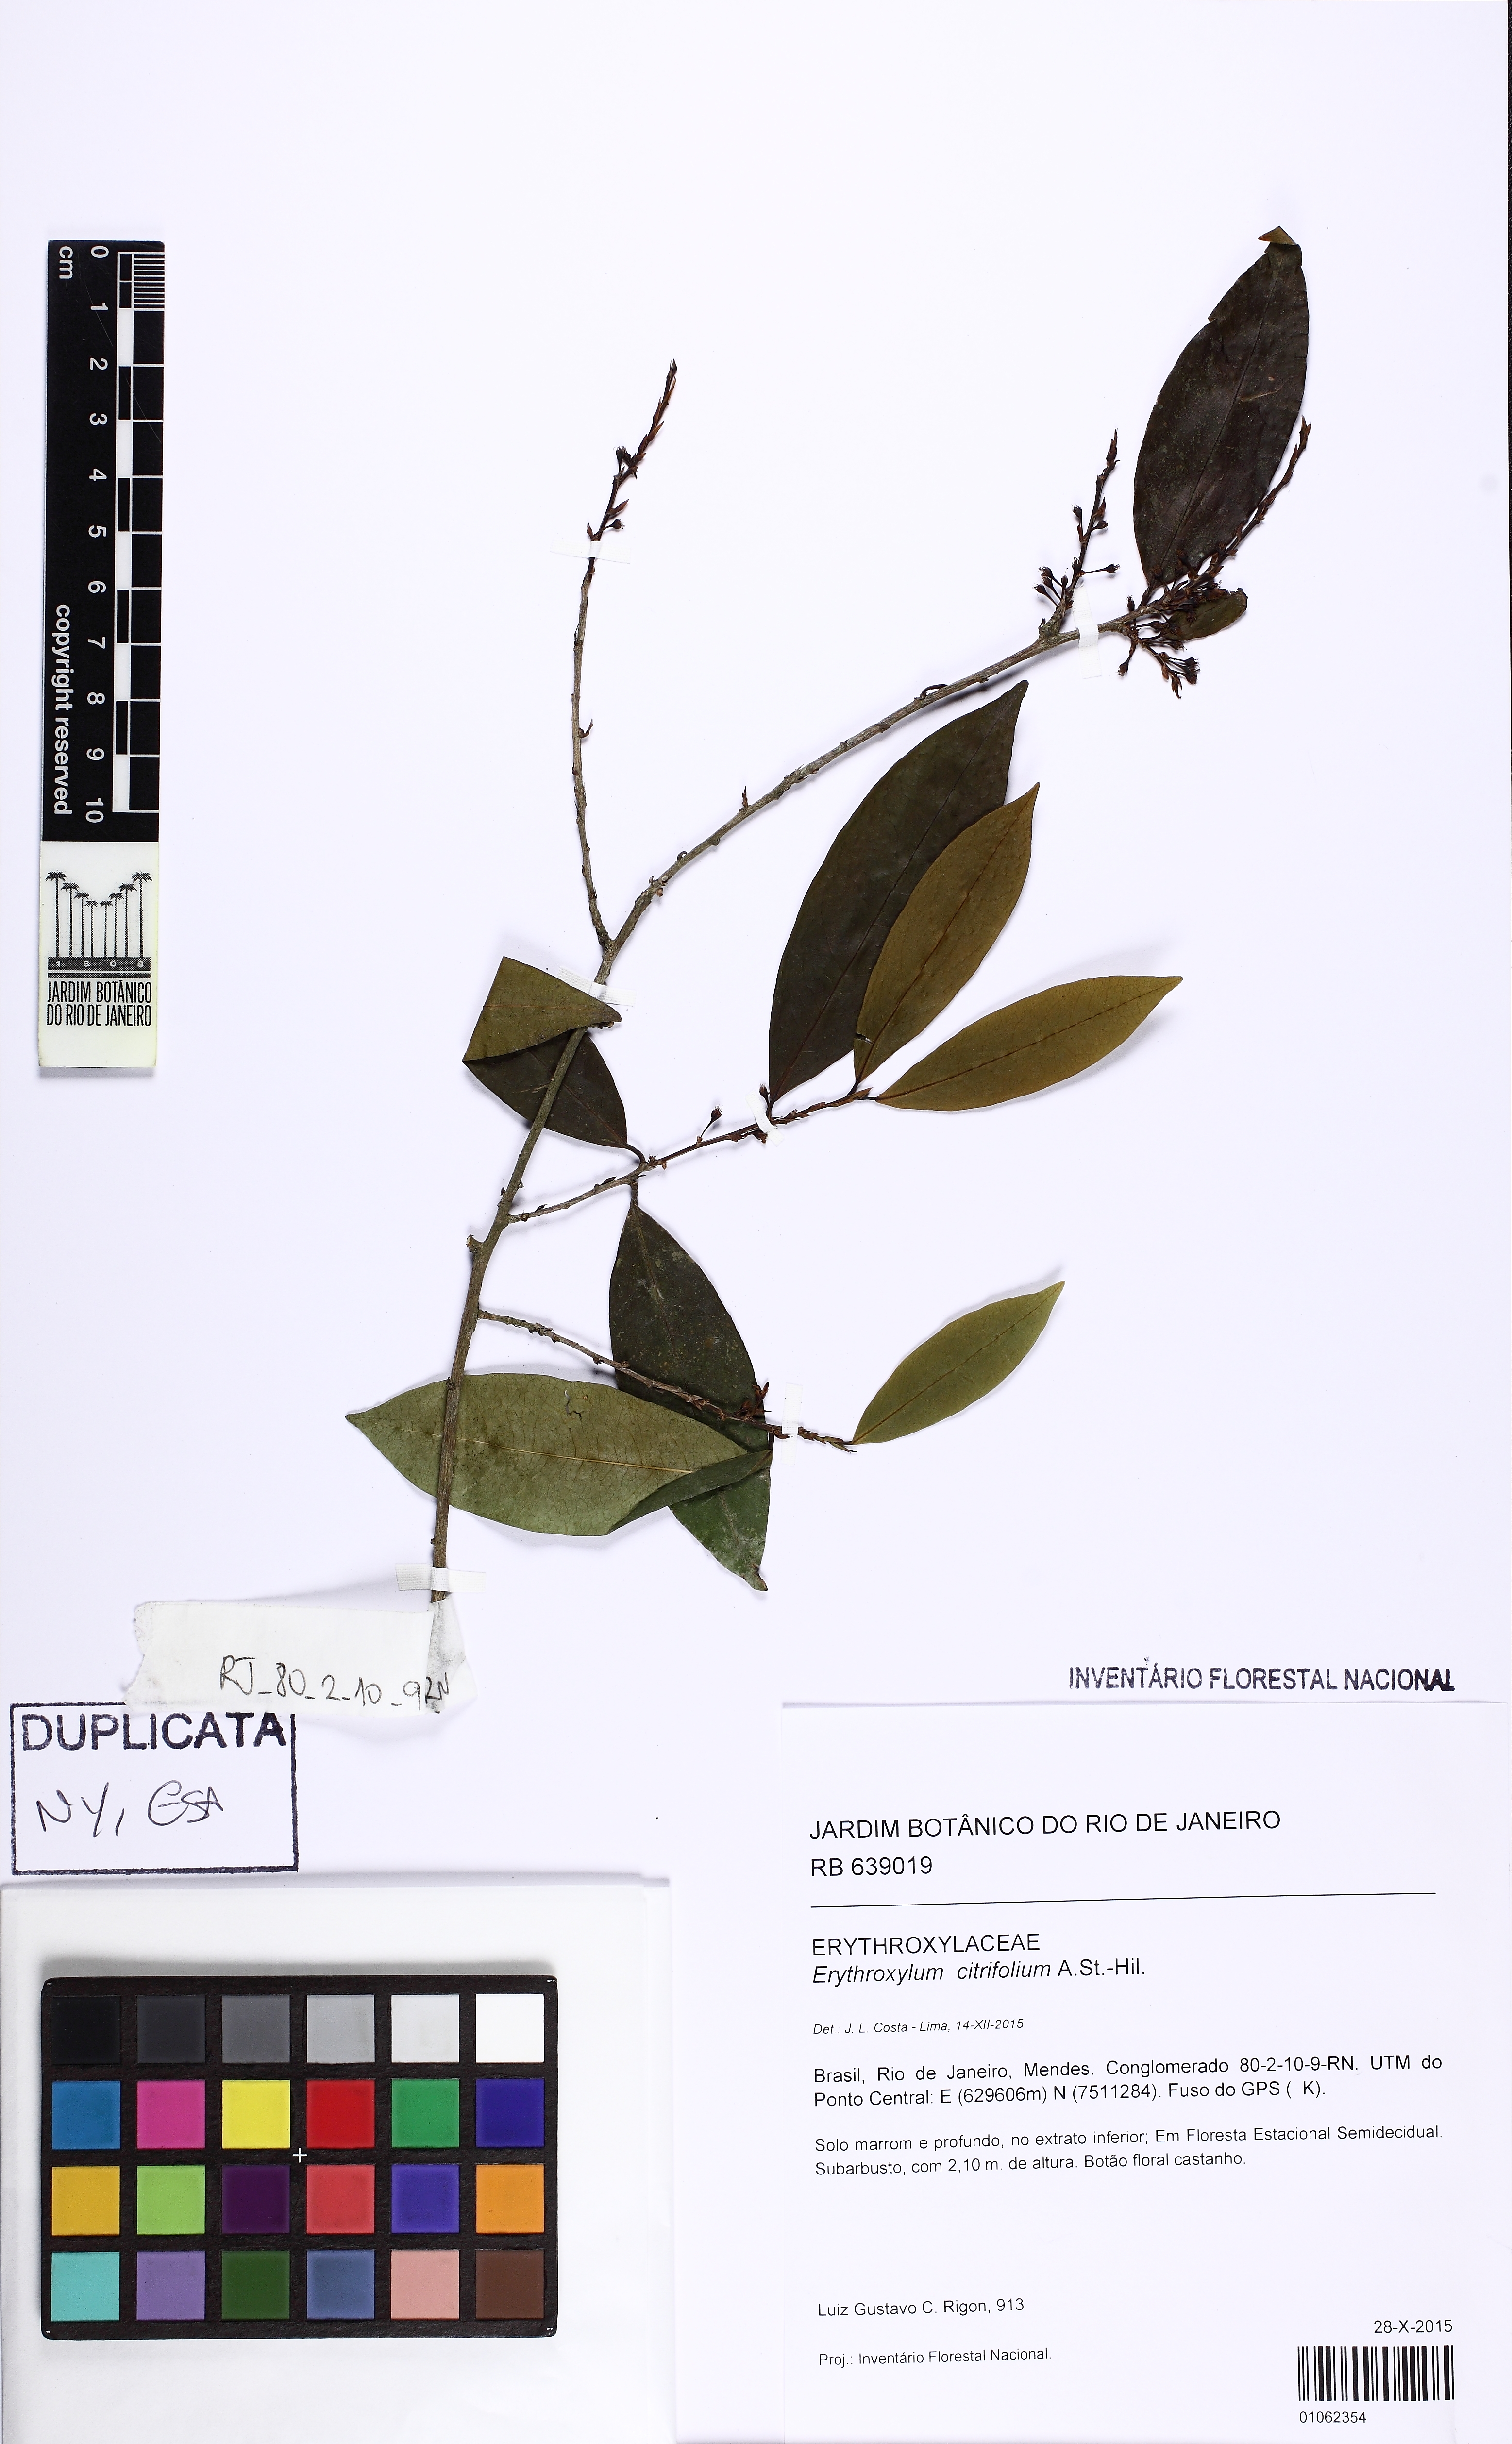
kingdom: Plantae
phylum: Tracheophyta
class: Magnoliopsida
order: Malpighiales
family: Erythroxylaceae
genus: Erythroxylum
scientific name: Erythroxylum citrifolium
